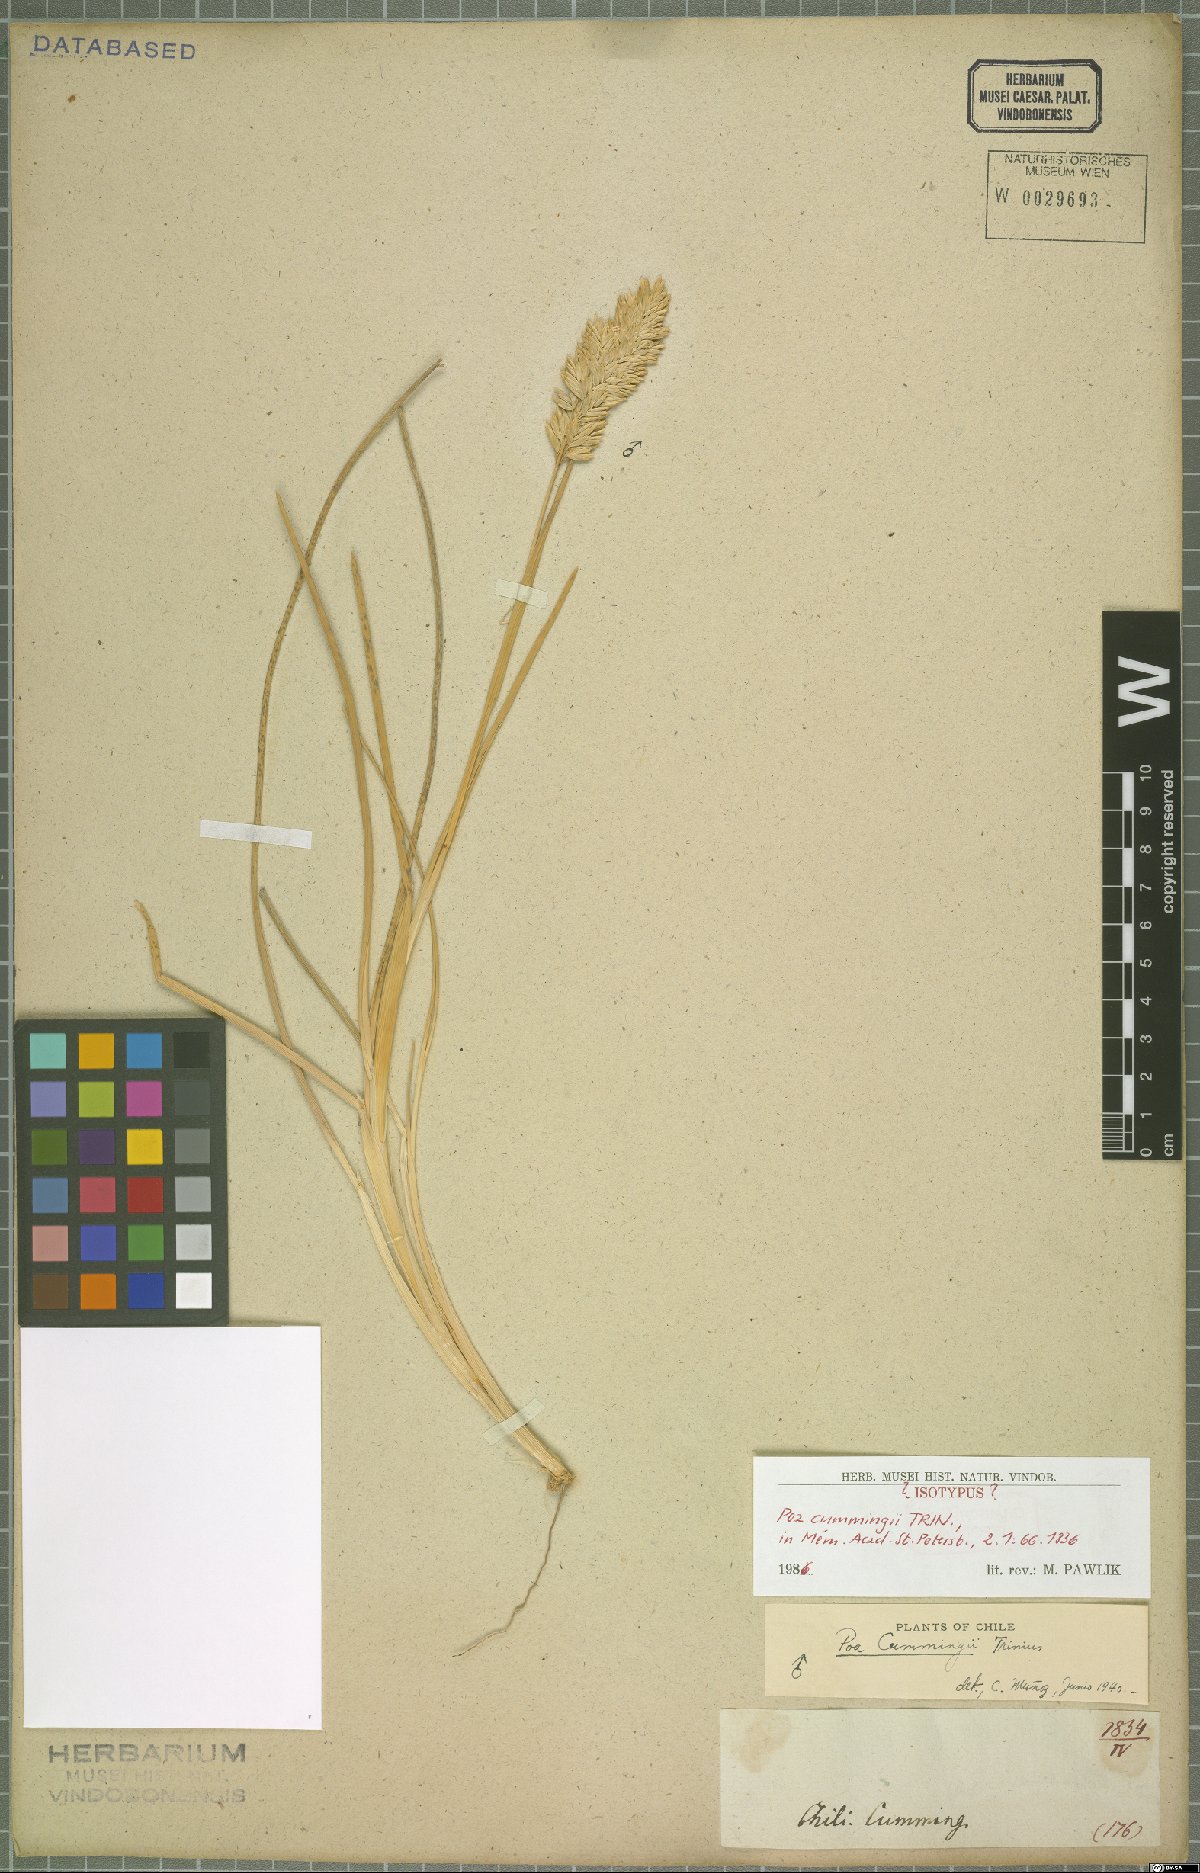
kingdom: Plantae
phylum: Tracheophyta
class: Liliopsida
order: Poales
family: Poaceae
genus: Poa
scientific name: Poa cumingii
